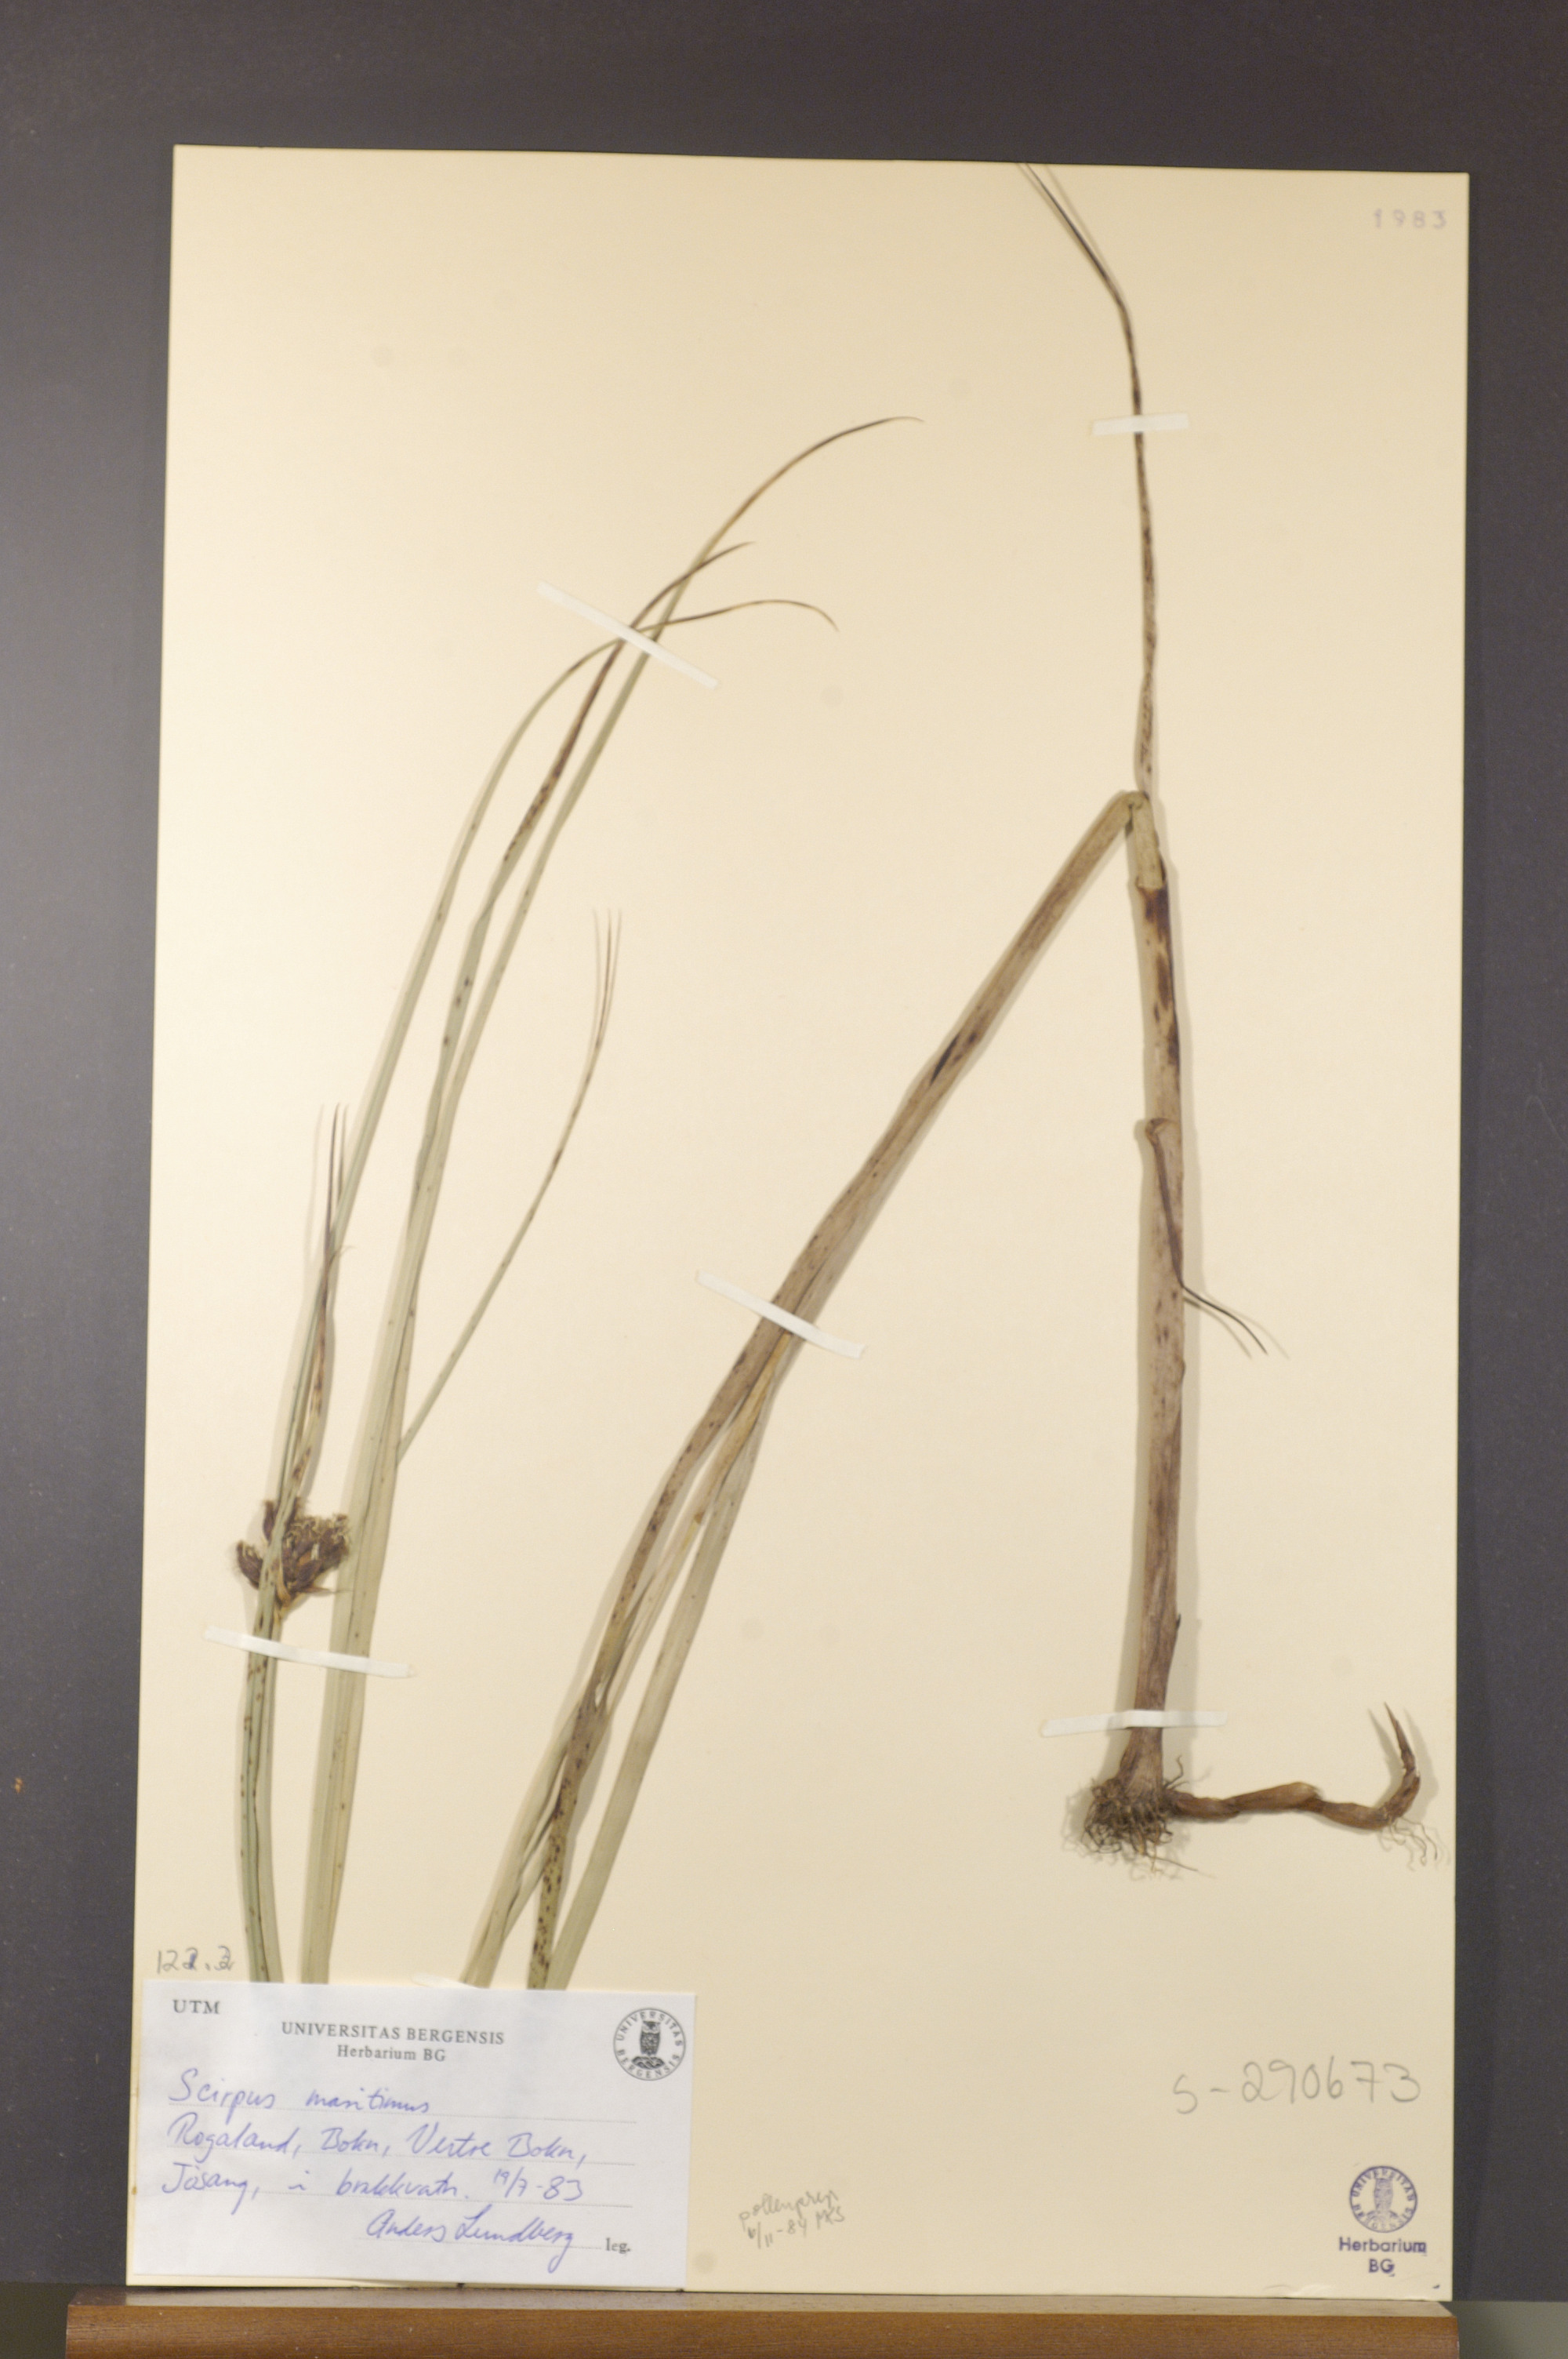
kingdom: Plantae
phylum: Tracheophyta
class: Liliopsida
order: Poales
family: Cyperaceae
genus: Bolboschoenus
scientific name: Bolboschoenus maritimus
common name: Sea club-rush
